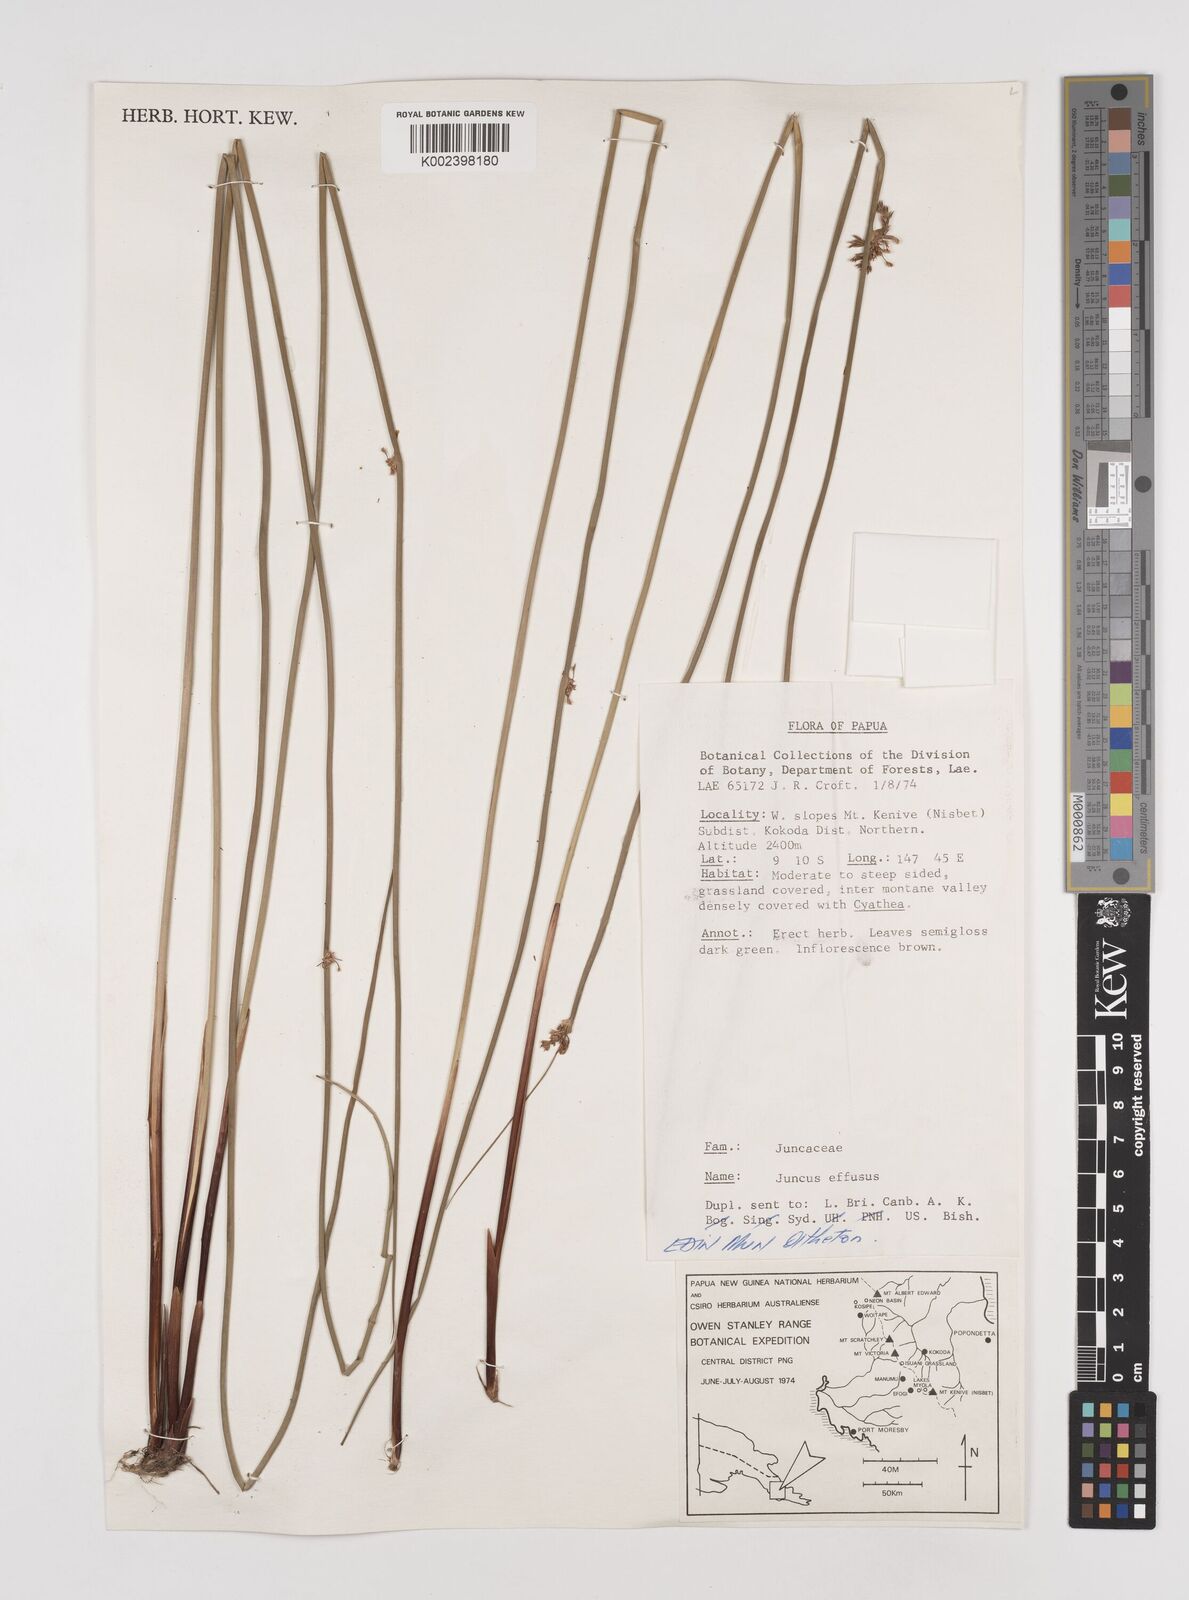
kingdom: Plantae
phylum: Tracheophyta
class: Liliopsida
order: Poales
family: Juncaceae
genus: Juncus
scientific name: Juncus decipiens
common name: Lamp rush
